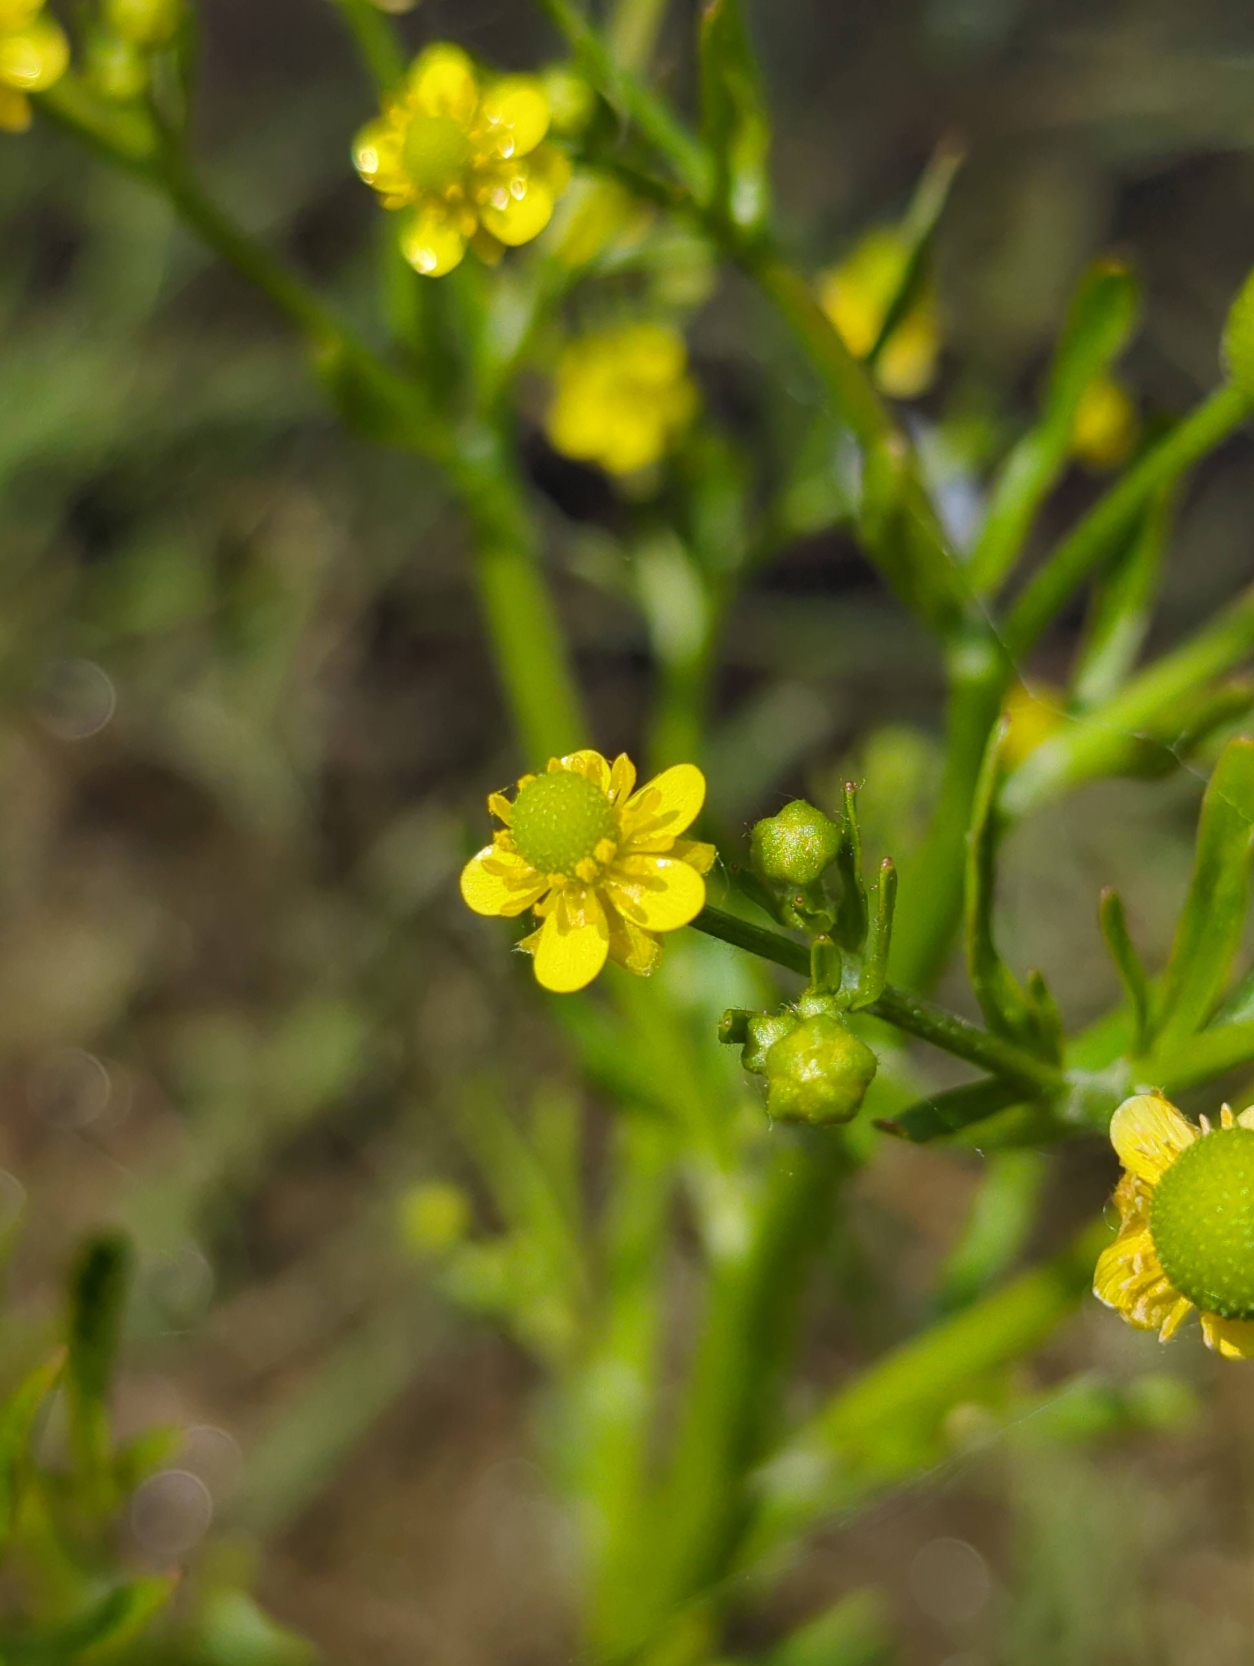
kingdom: Plantae
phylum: Tracheophyta
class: Magnoliopsida
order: Ranunculales
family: Ranunculaceae
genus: Ranunculus
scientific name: Ranunculus sceleratus
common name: Tigger-ranunkel
